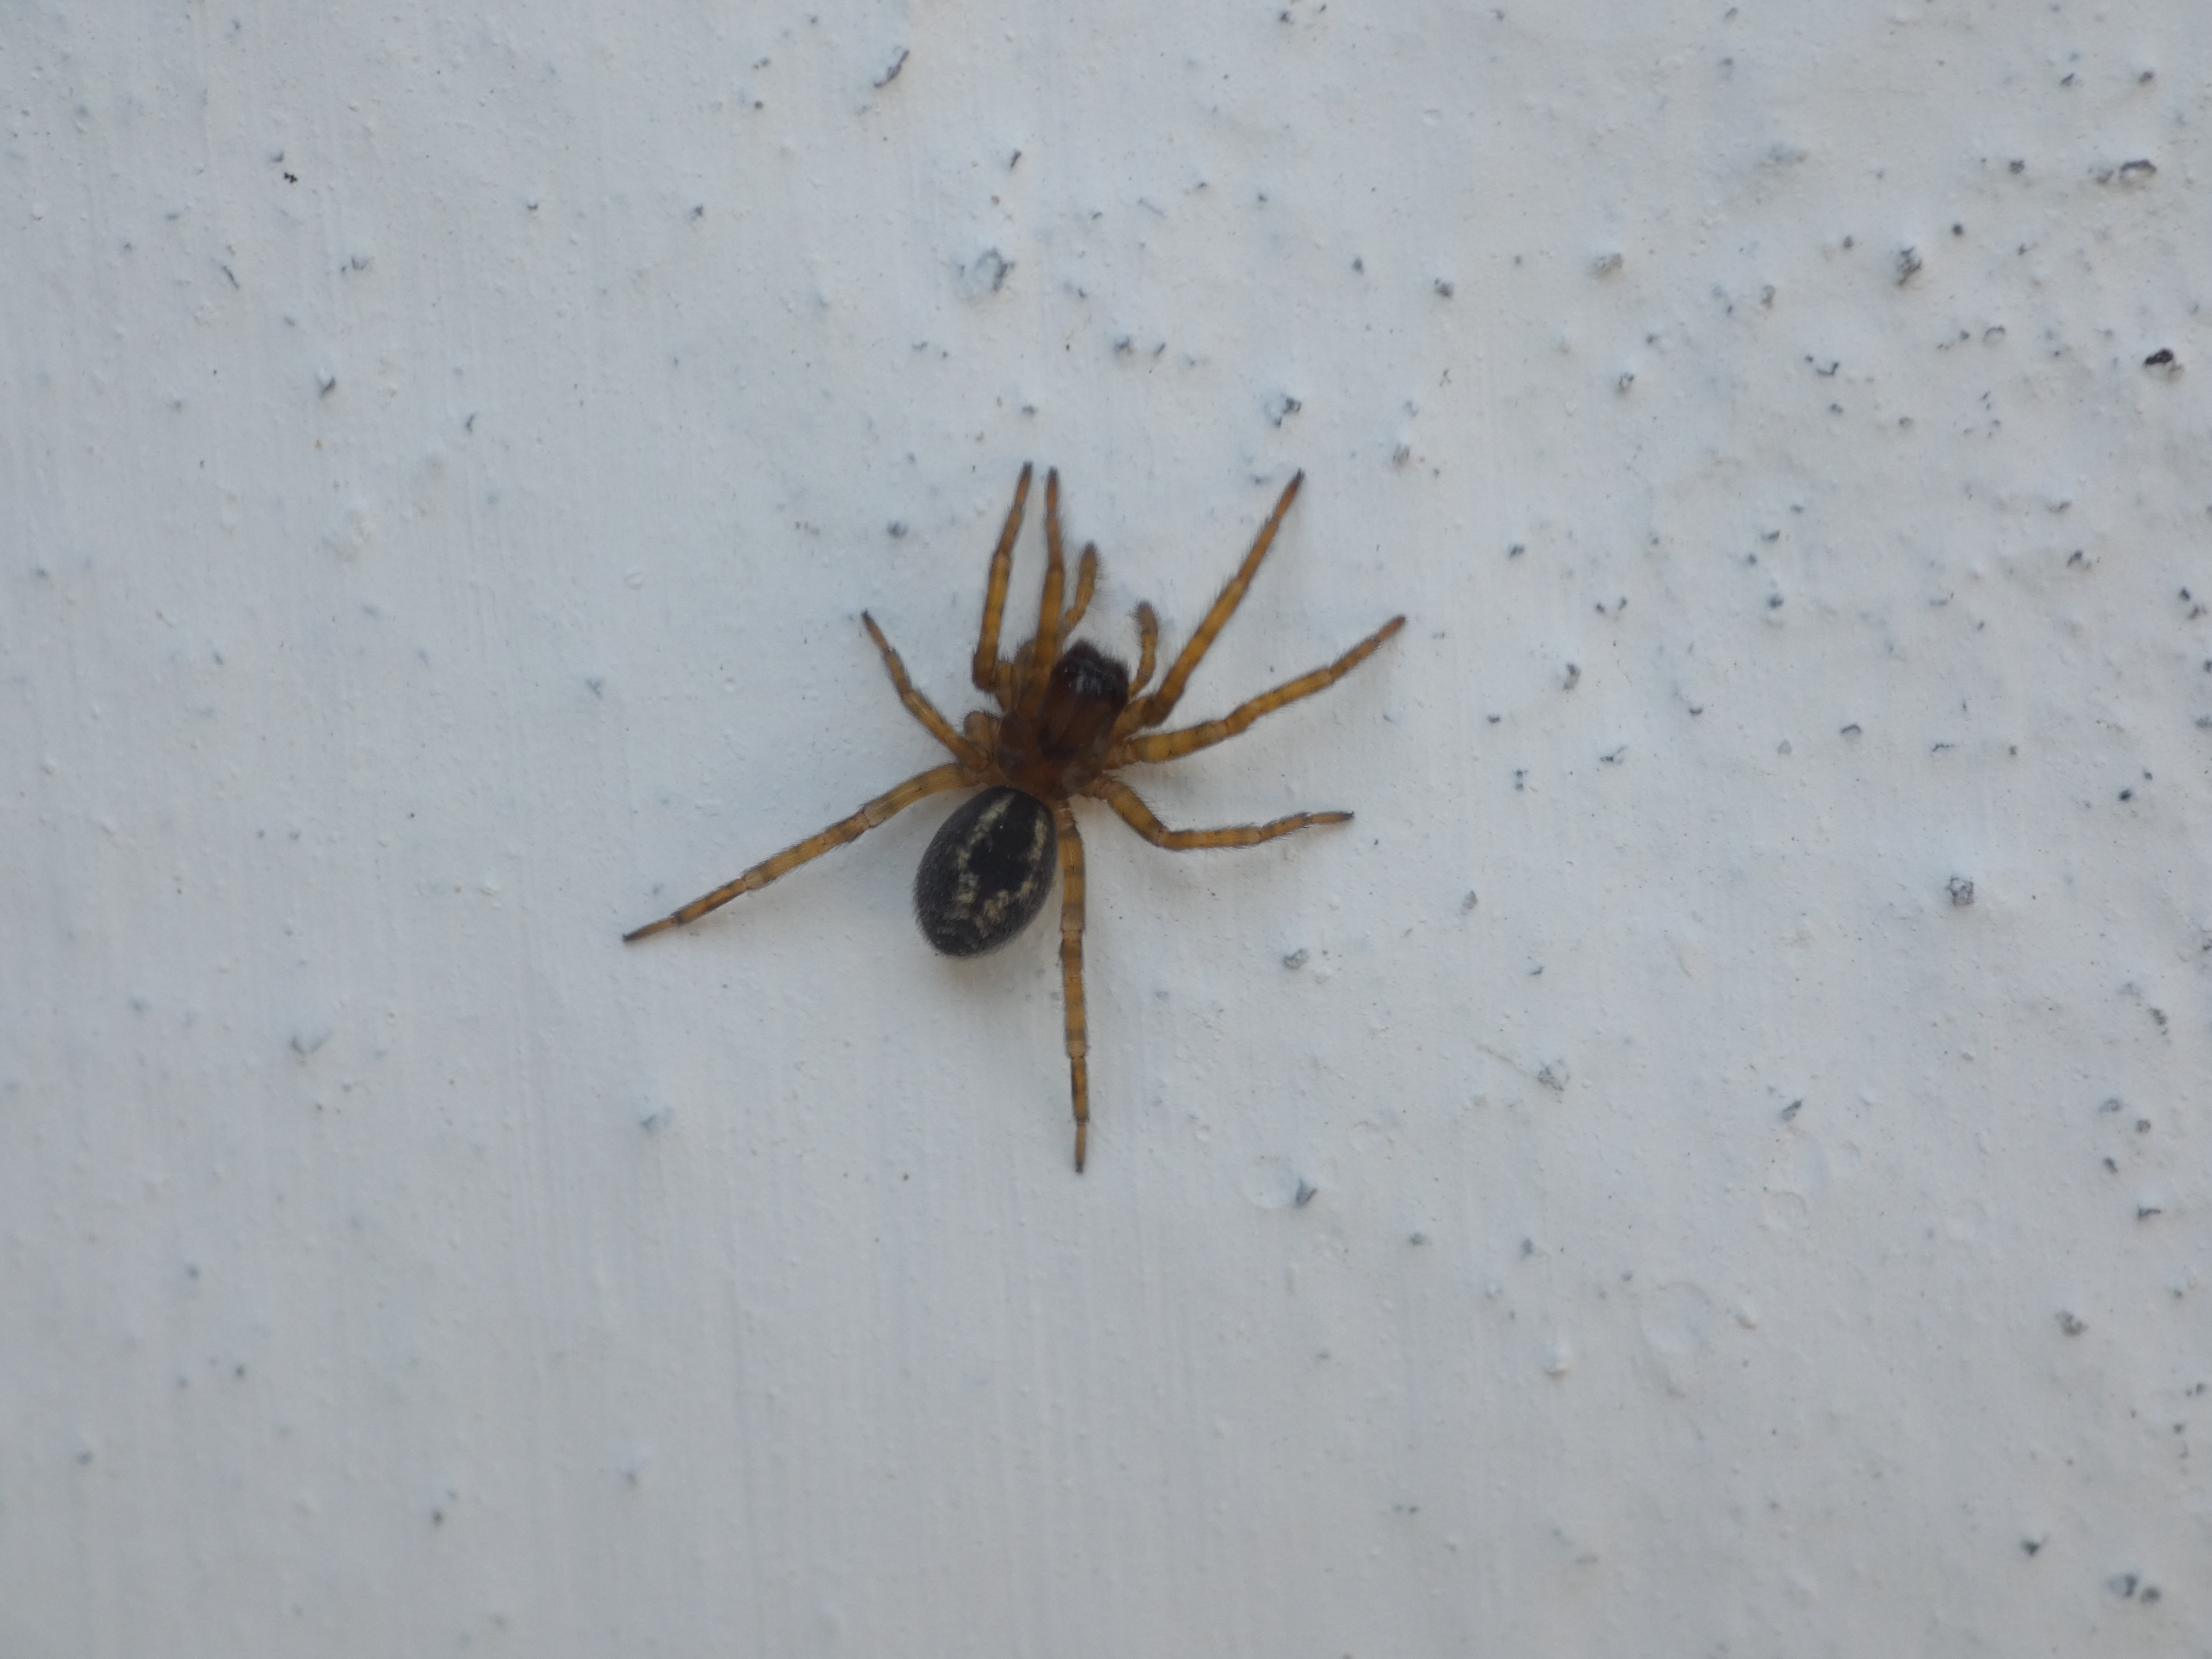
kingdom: Animalia
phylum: Arthropoda
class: Arachnida
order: Araneae
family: Amaurobiidae
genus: Amaurobius
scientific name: Amaurobius
